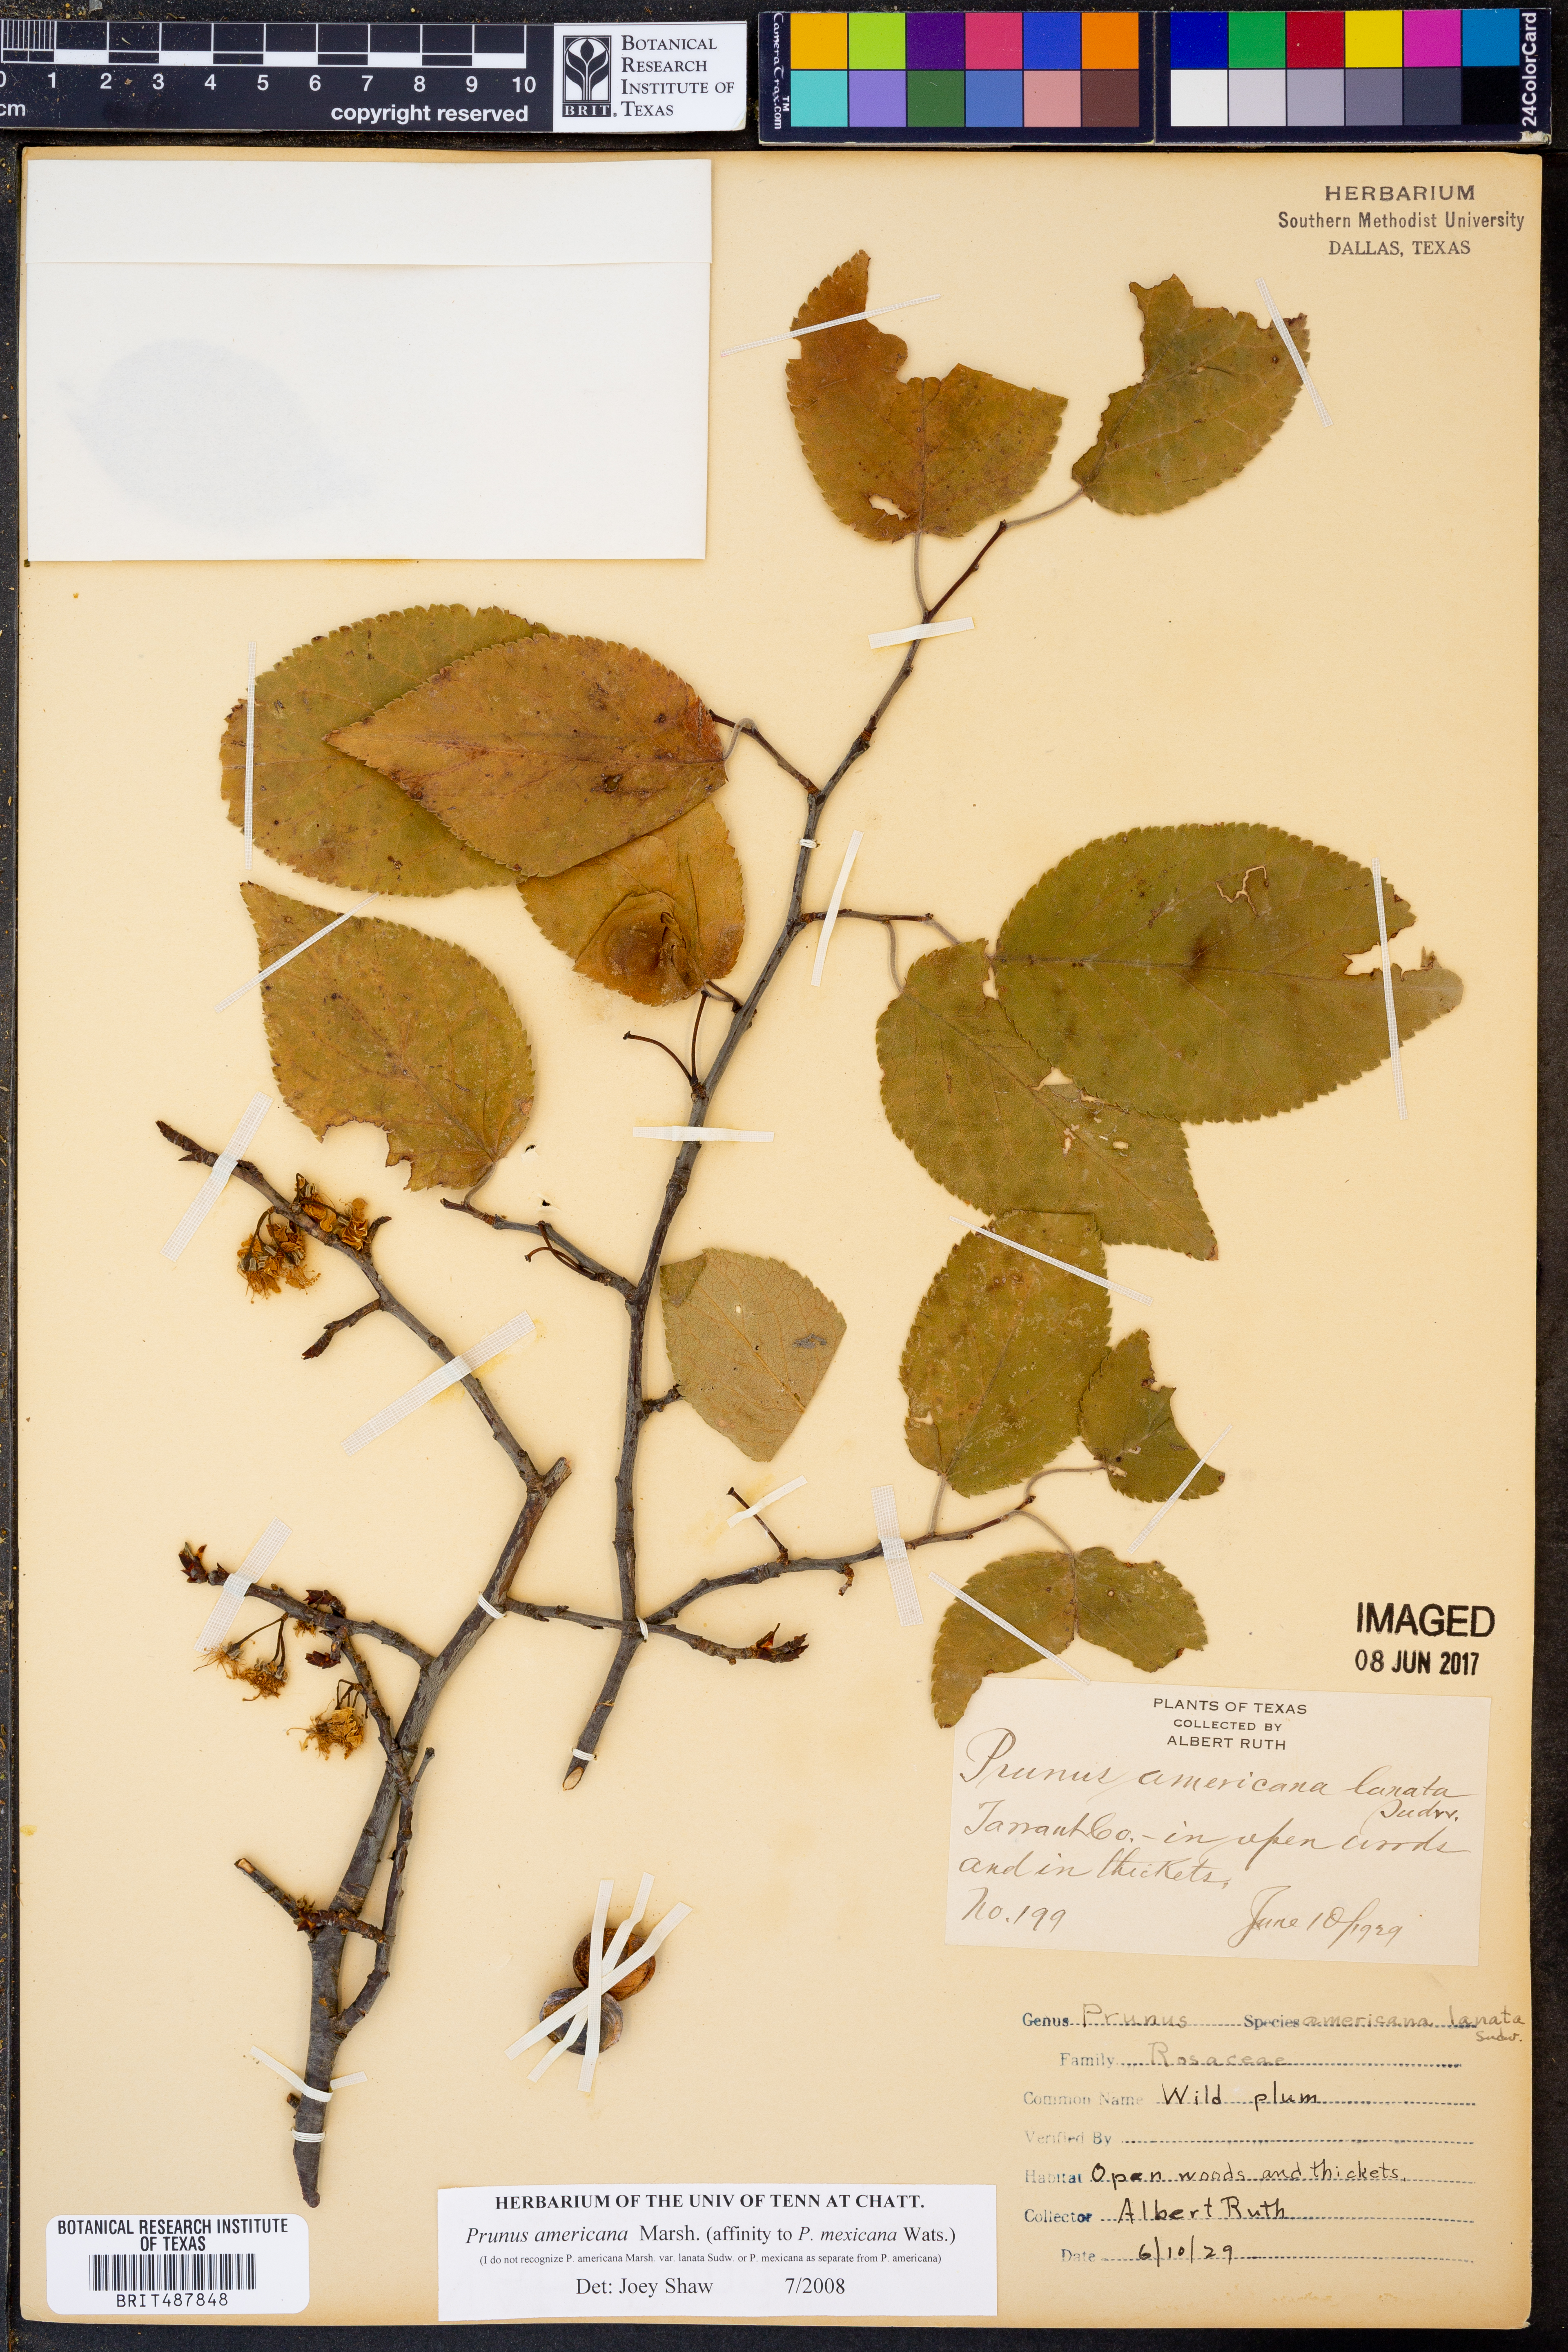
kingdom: Plantae
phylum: Tracheophyta
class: Magnoliopsida
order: Rosales
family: Rosaceae
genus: Prunus
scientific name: Prunus americana
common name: American plum
